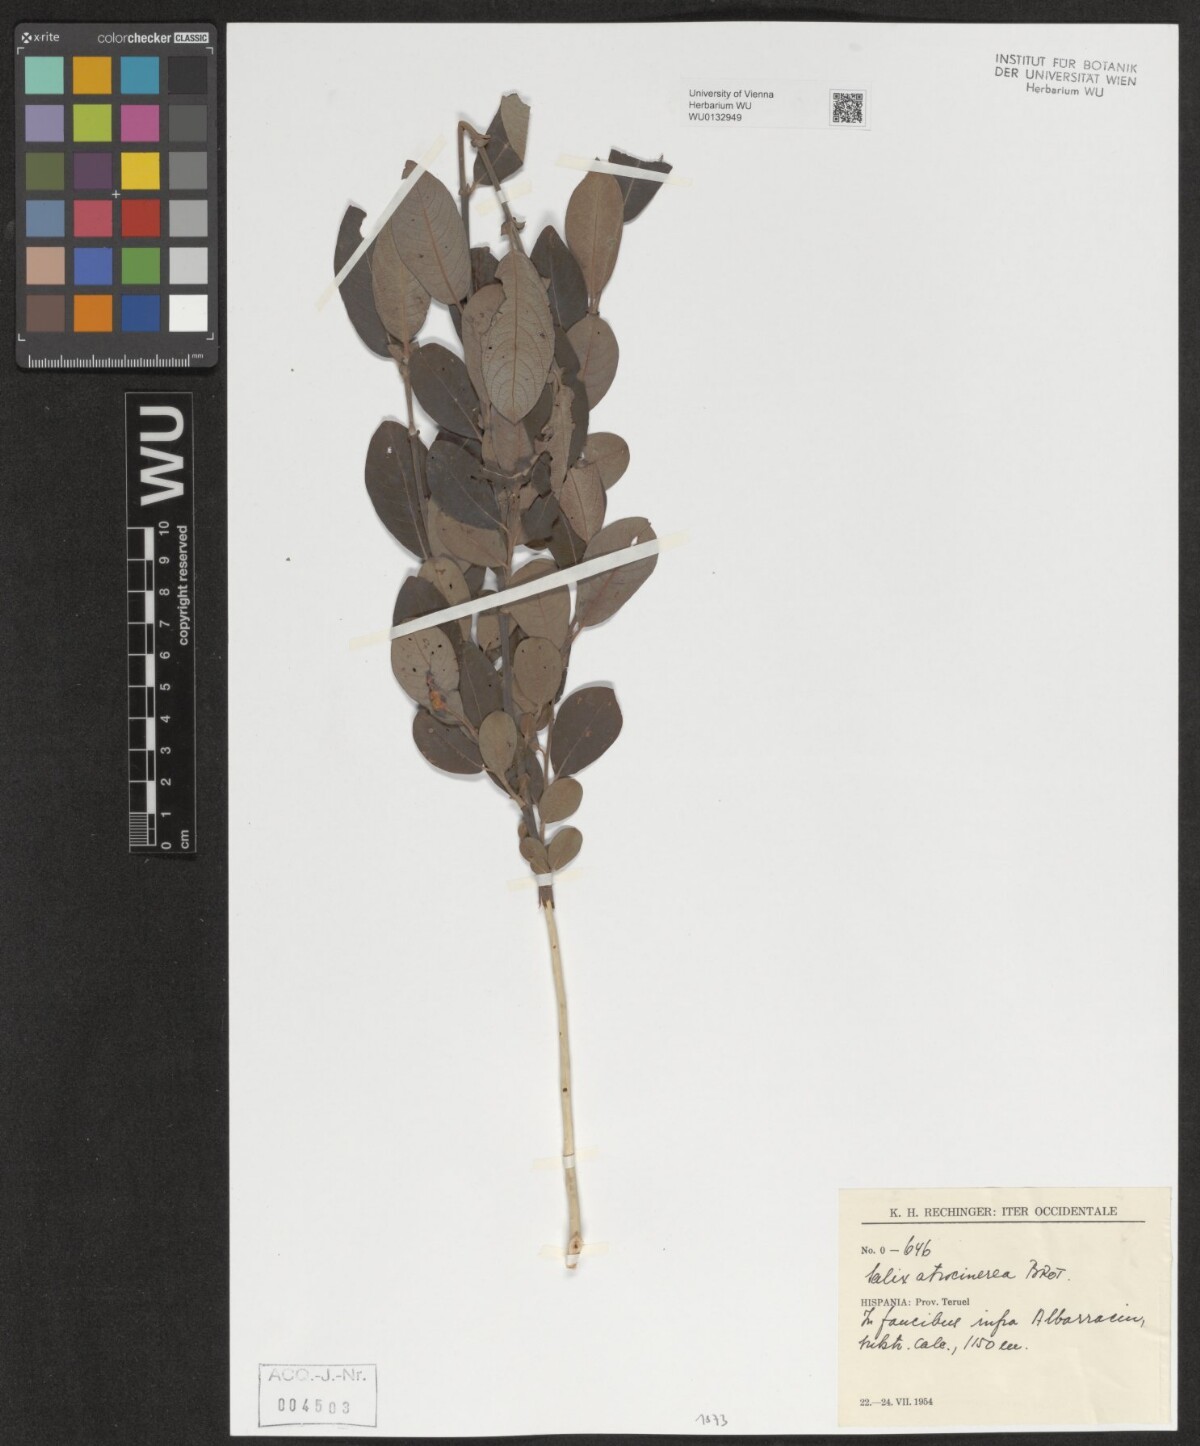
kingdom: Plantae
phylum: Tracheophyta
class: Magnoliopsida
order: Malpighiales
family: Salicaceae
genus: Salix
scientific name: Salix atrocinerea
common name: Rusty willow
